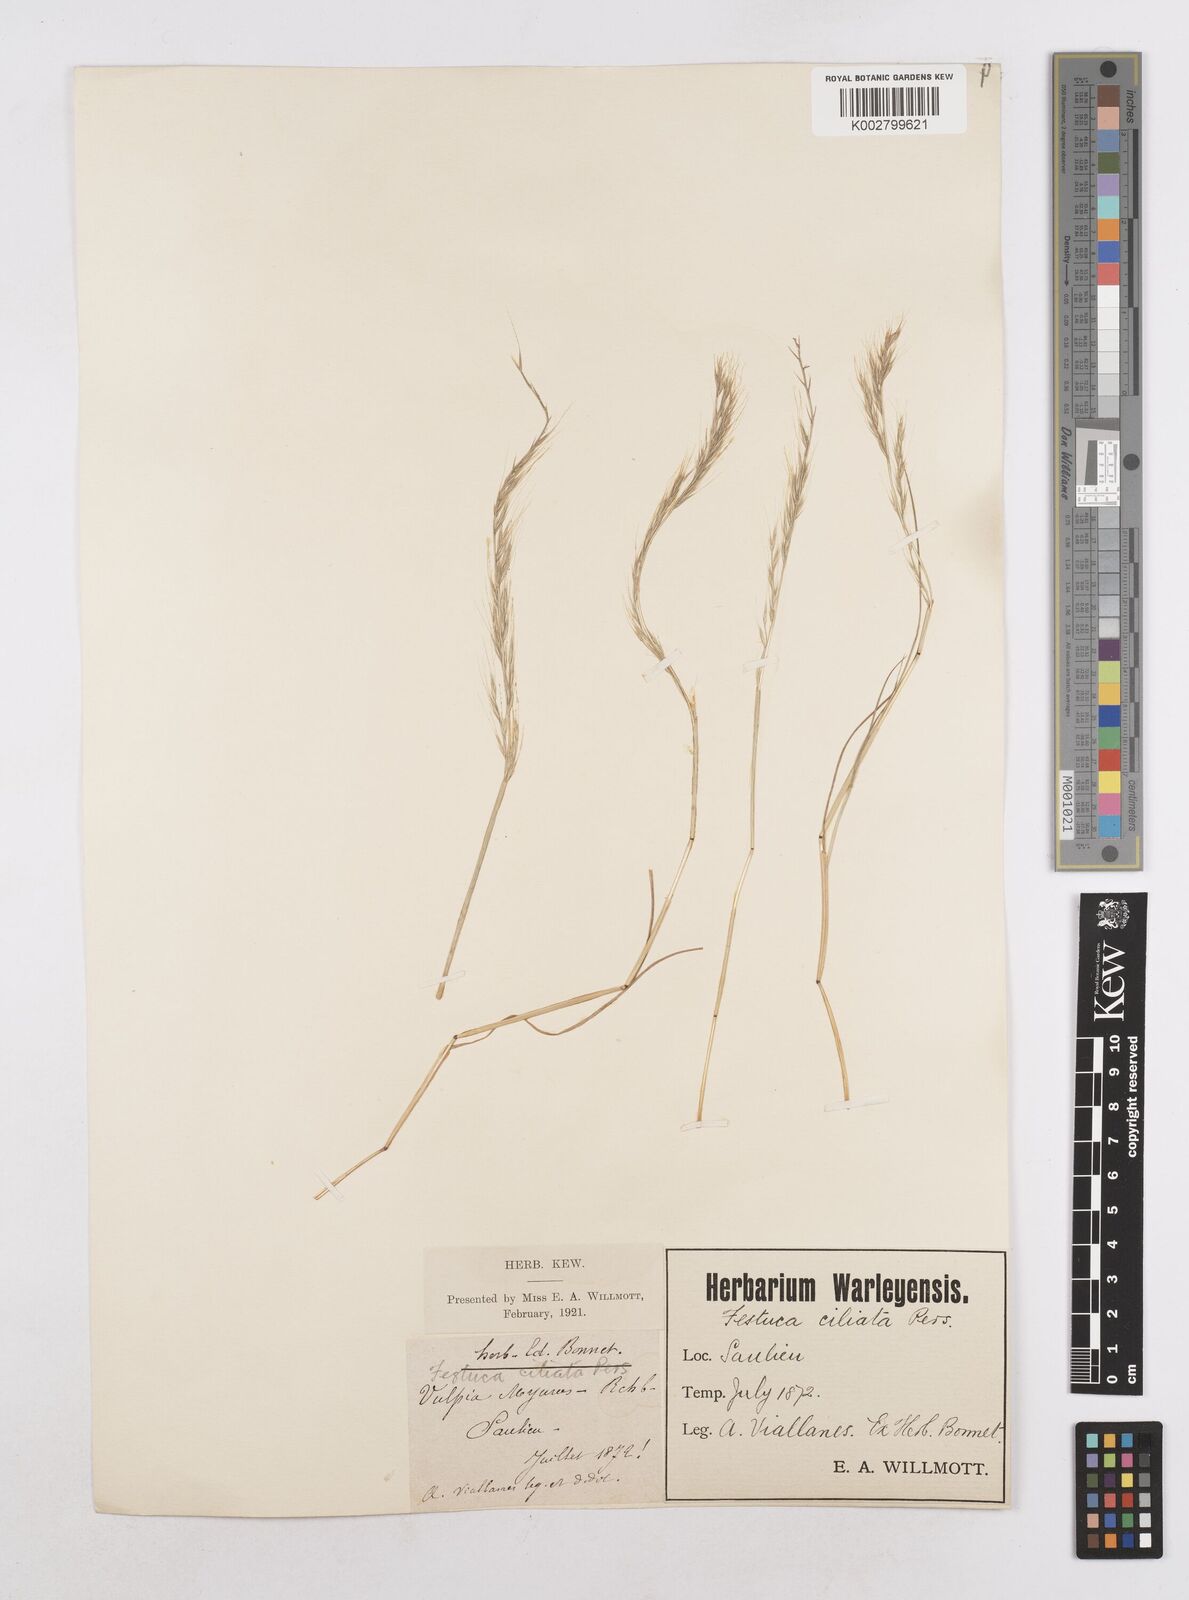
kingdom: Plantae
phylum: Tracheophyta
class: Liliopsida
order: Poales
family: Poaceae
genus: Festuca
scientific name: Festuca
